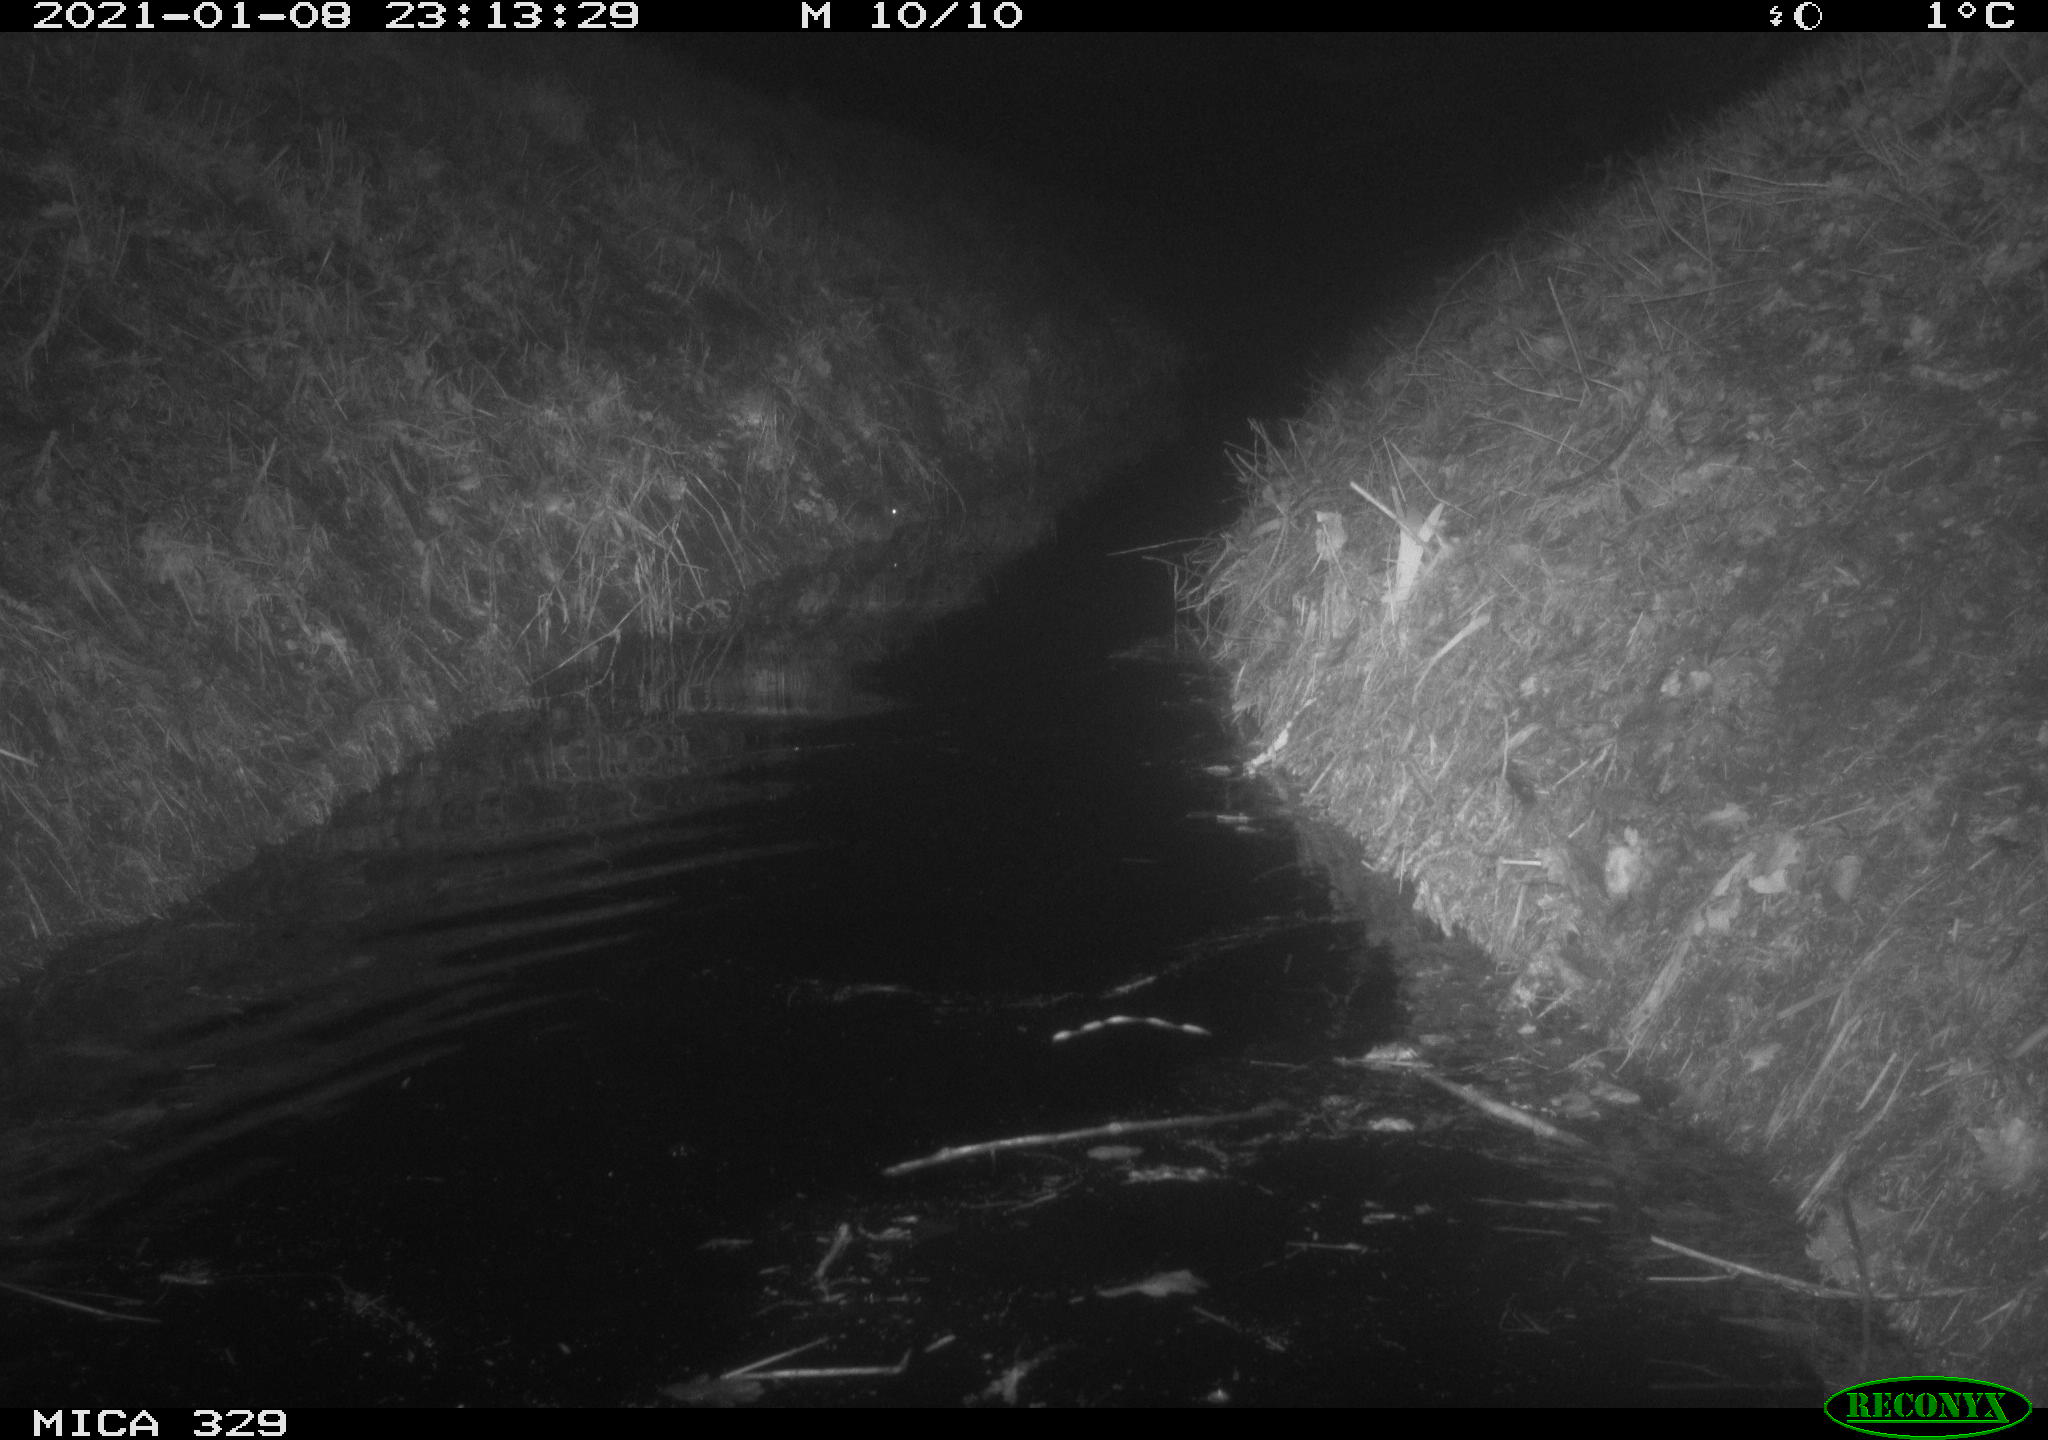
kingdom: Animalia
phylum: Chordata
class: Mammalia
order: Rodentia
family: Myocastoridae
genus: Myocastor
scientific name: Myocastor coypus
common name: Coypu
